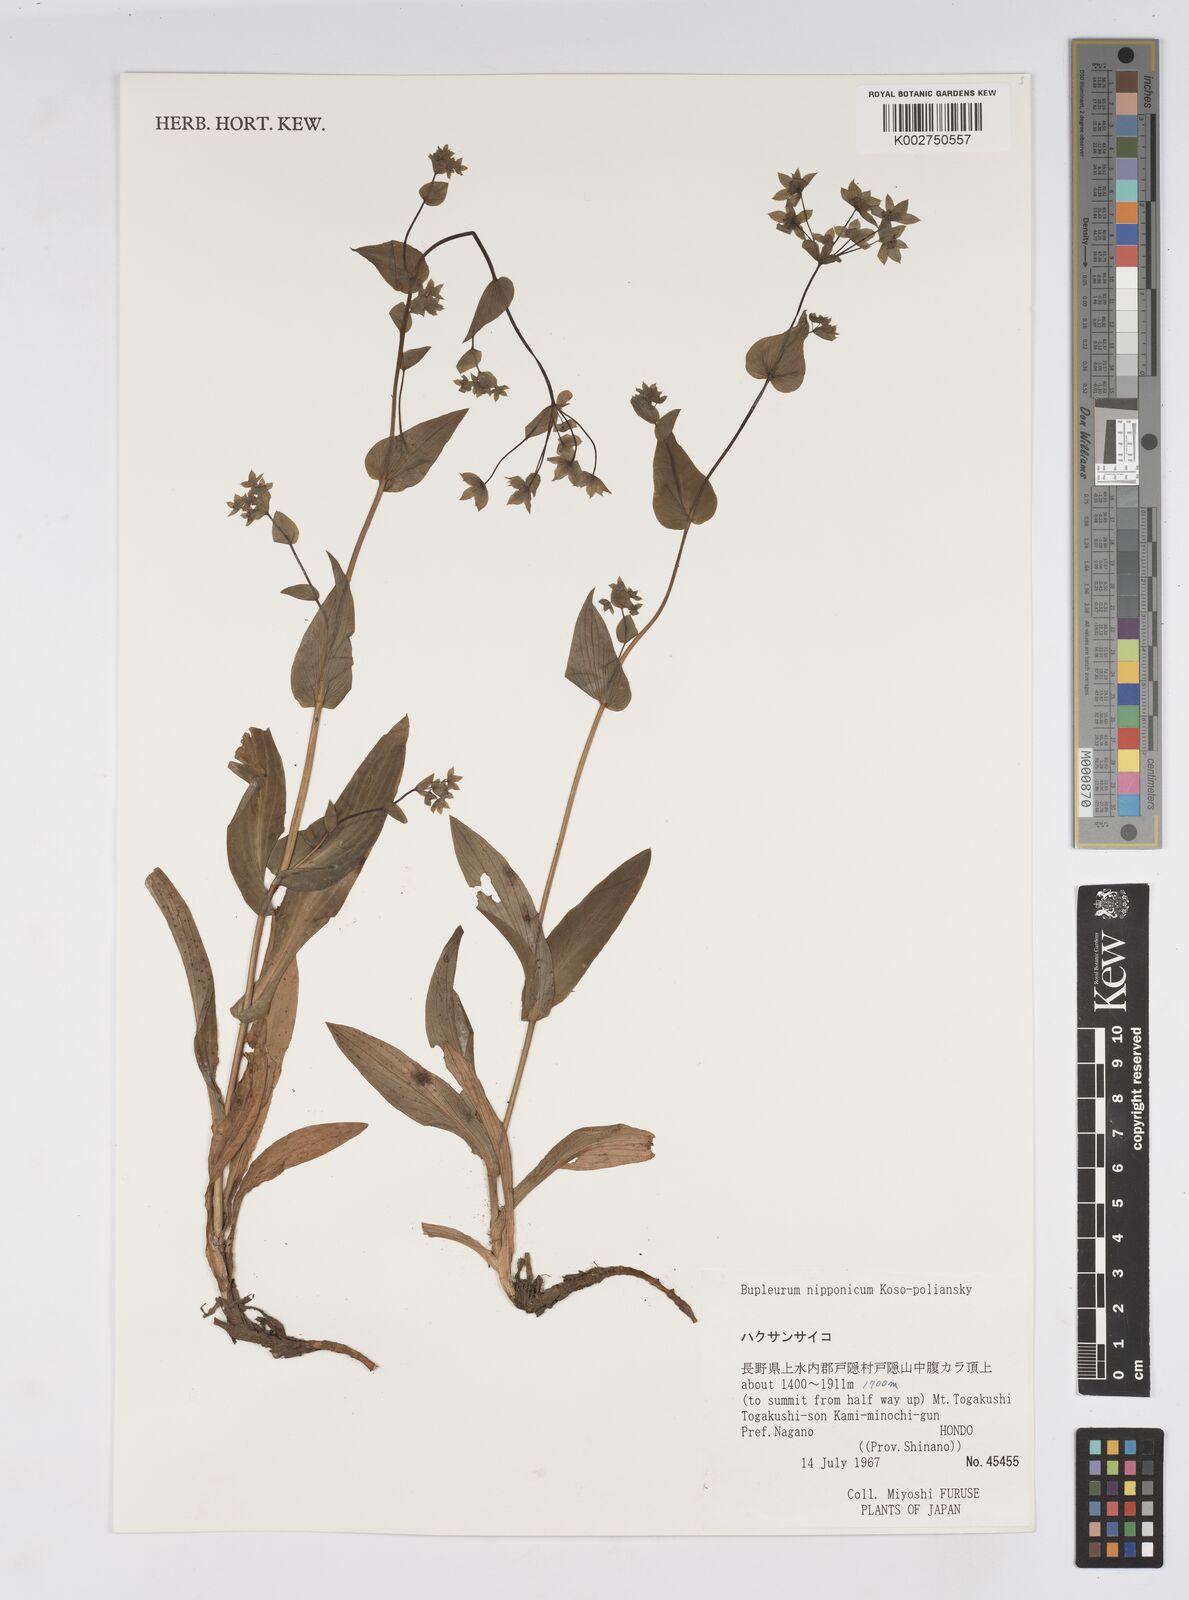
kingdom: Plantae
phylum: Tracheophyta
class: Magnoliopsida
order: Apiales
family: Apiaceae
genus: Bupleurum
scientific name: Bupleurum nipponicum
